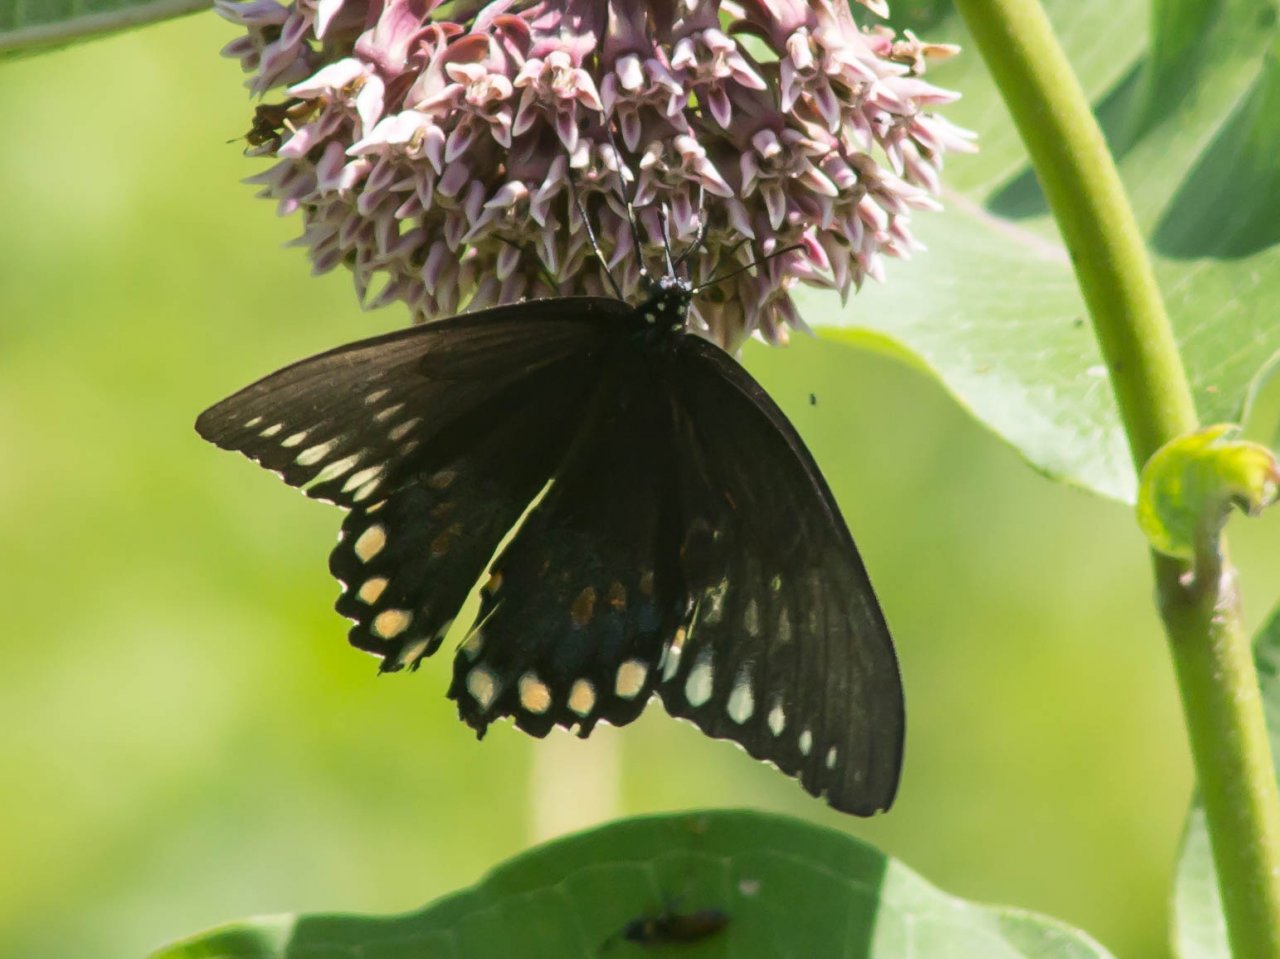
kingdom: Animalia
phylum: Arthropoda
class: Insecta
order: Lepidoptera
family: Papilionidae
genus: Pterourus
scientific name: Pterourus troilus
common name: Spicebush Swallowtail
